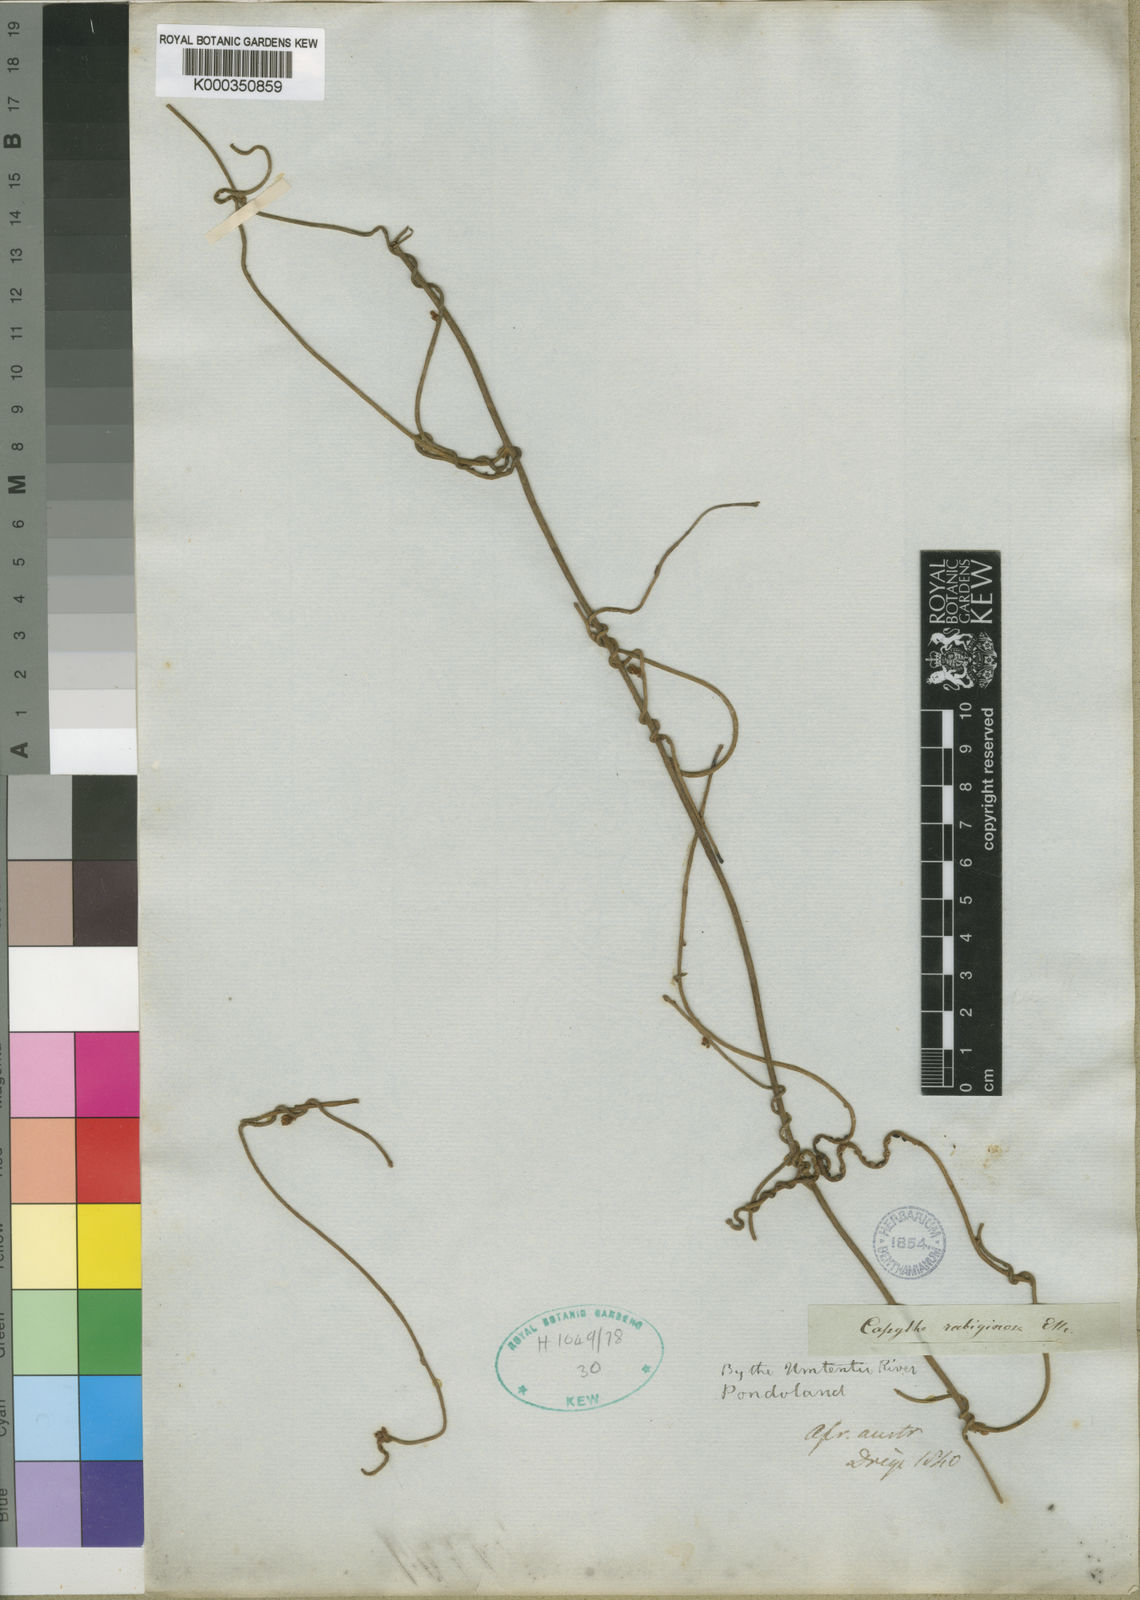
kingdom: Plantae
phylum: Tracheophyta
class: Magnoliopsida
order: Laurales
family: Lauraceae
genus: Cassytha
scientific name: Cassytha pondoensis
